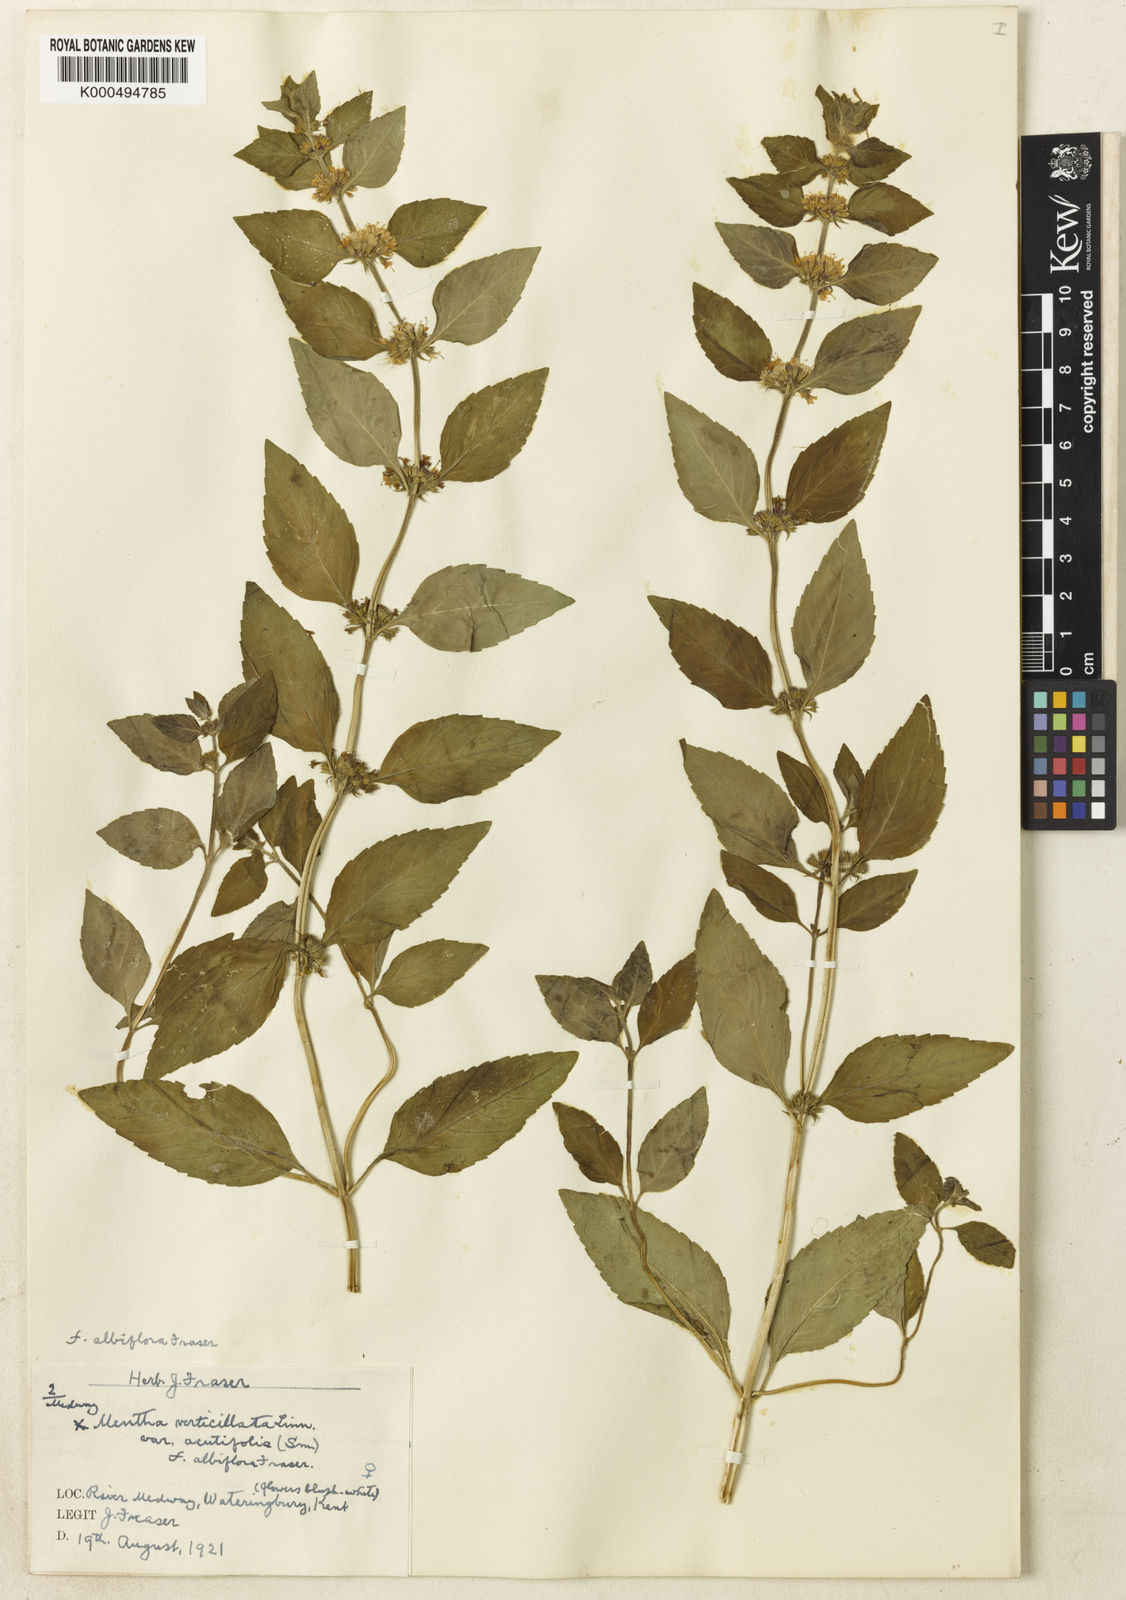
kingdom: Plantae
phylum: Tracheophyta
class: Magnoliopsida
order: Lamiales
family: Lamiaceae
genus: Mentha
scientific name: Mentha verticillata
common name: Mint
